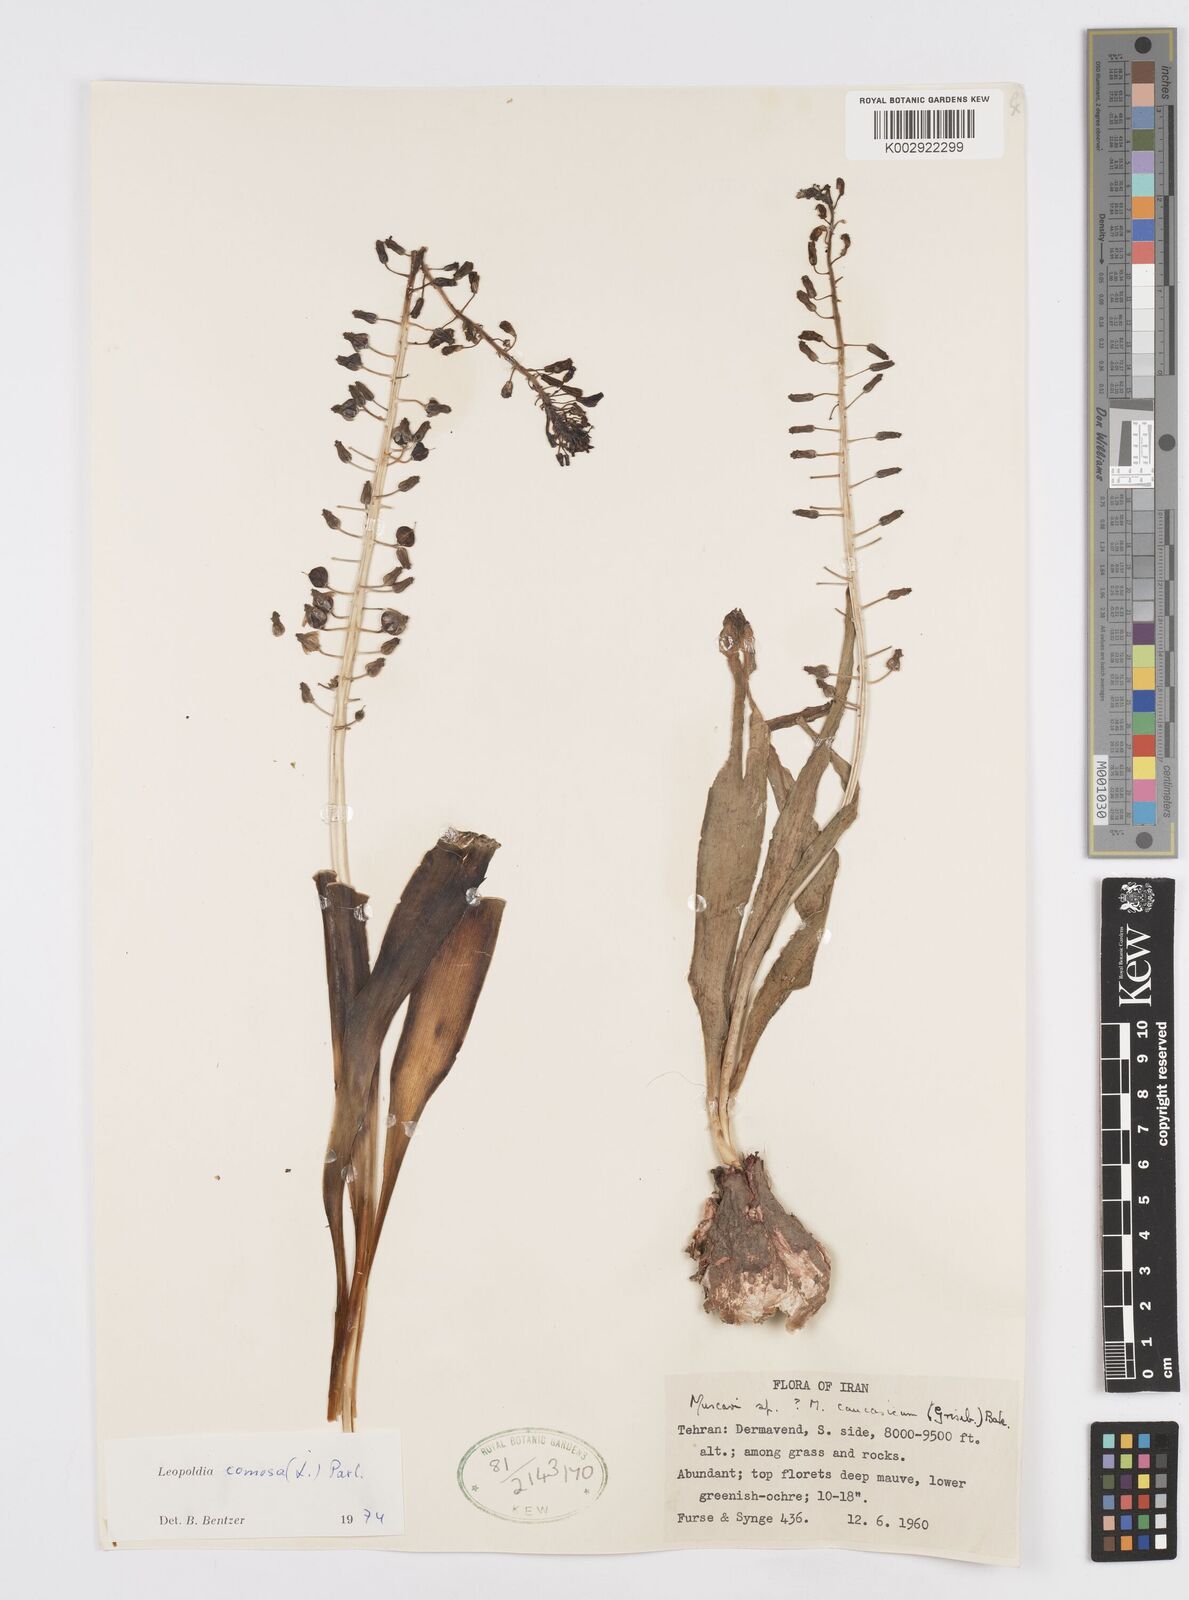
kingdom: Plantae
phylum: Tracheophyta
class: Liliopsida
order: Asparagales
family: Asparagaceae
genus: Muscari
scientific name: Muscari comosum
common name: Tassel hyacinth
